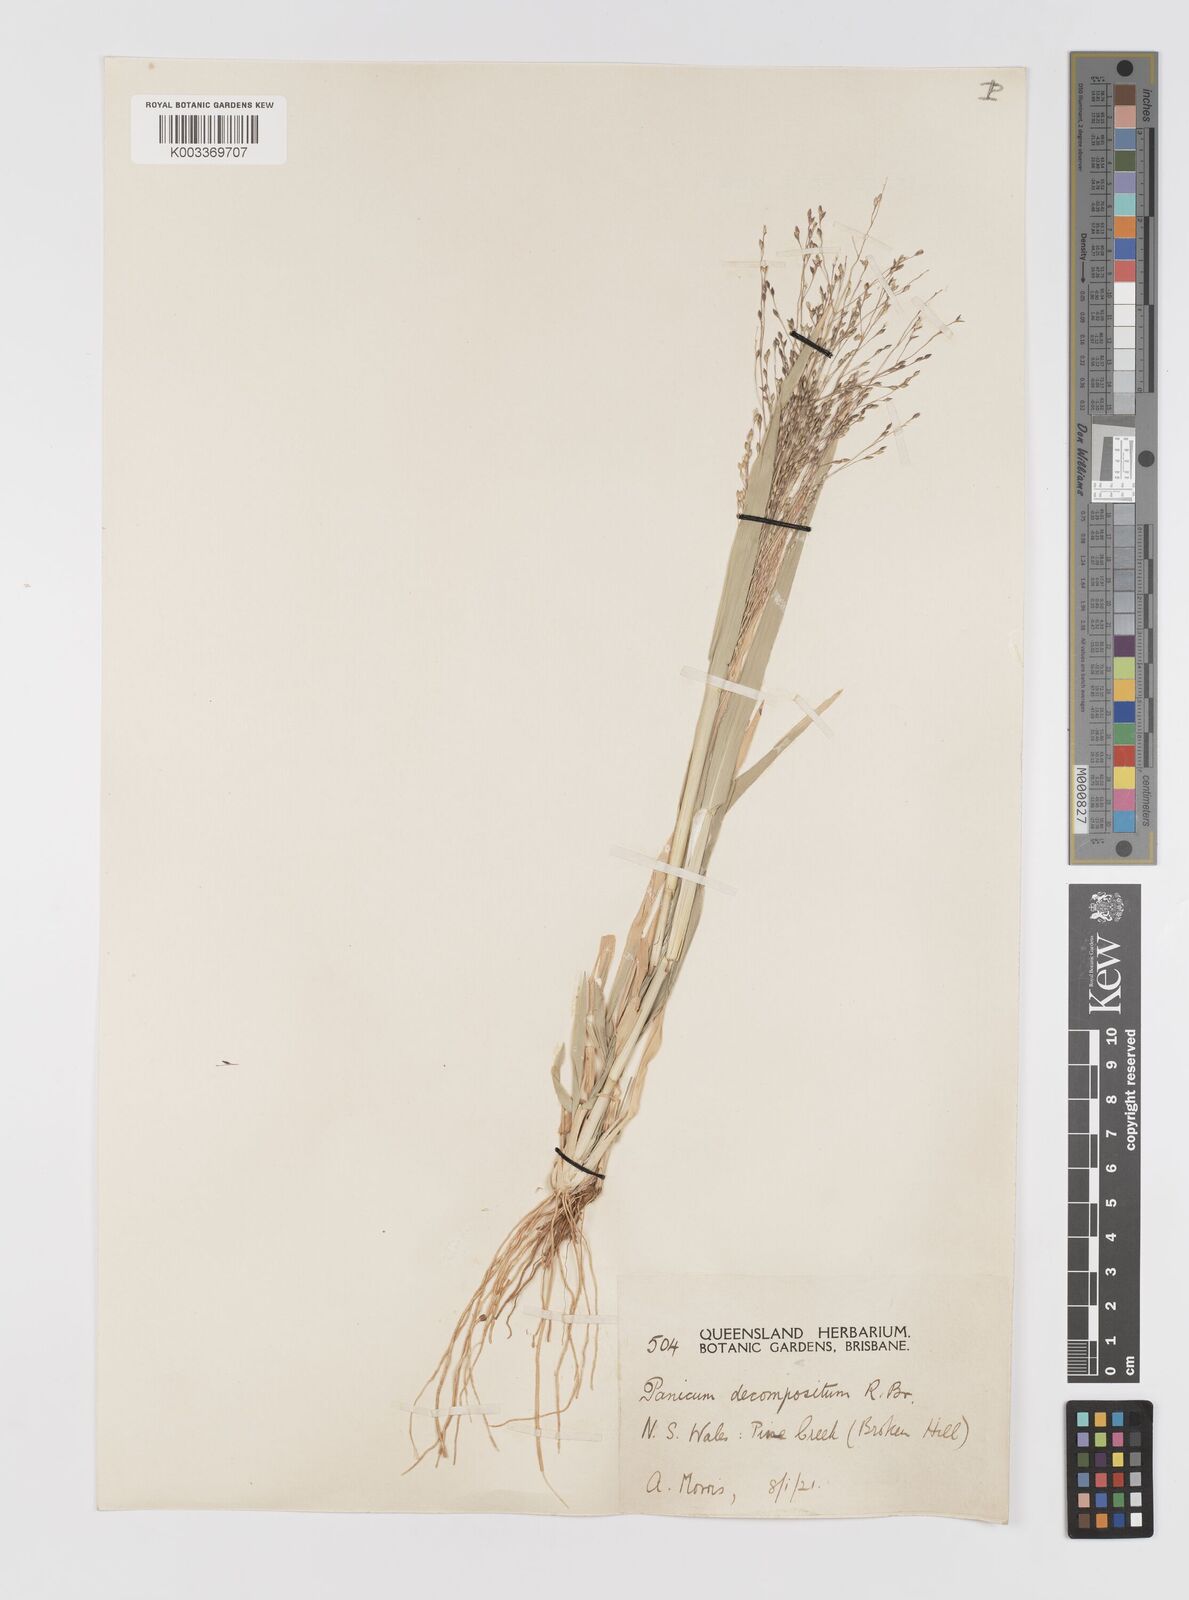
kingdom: Plantae
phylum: Tracheophyta
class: Liliopsida
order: Poales
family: Poaceae
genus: Panicum
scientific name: Panicum decompositum
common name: Australian millet
